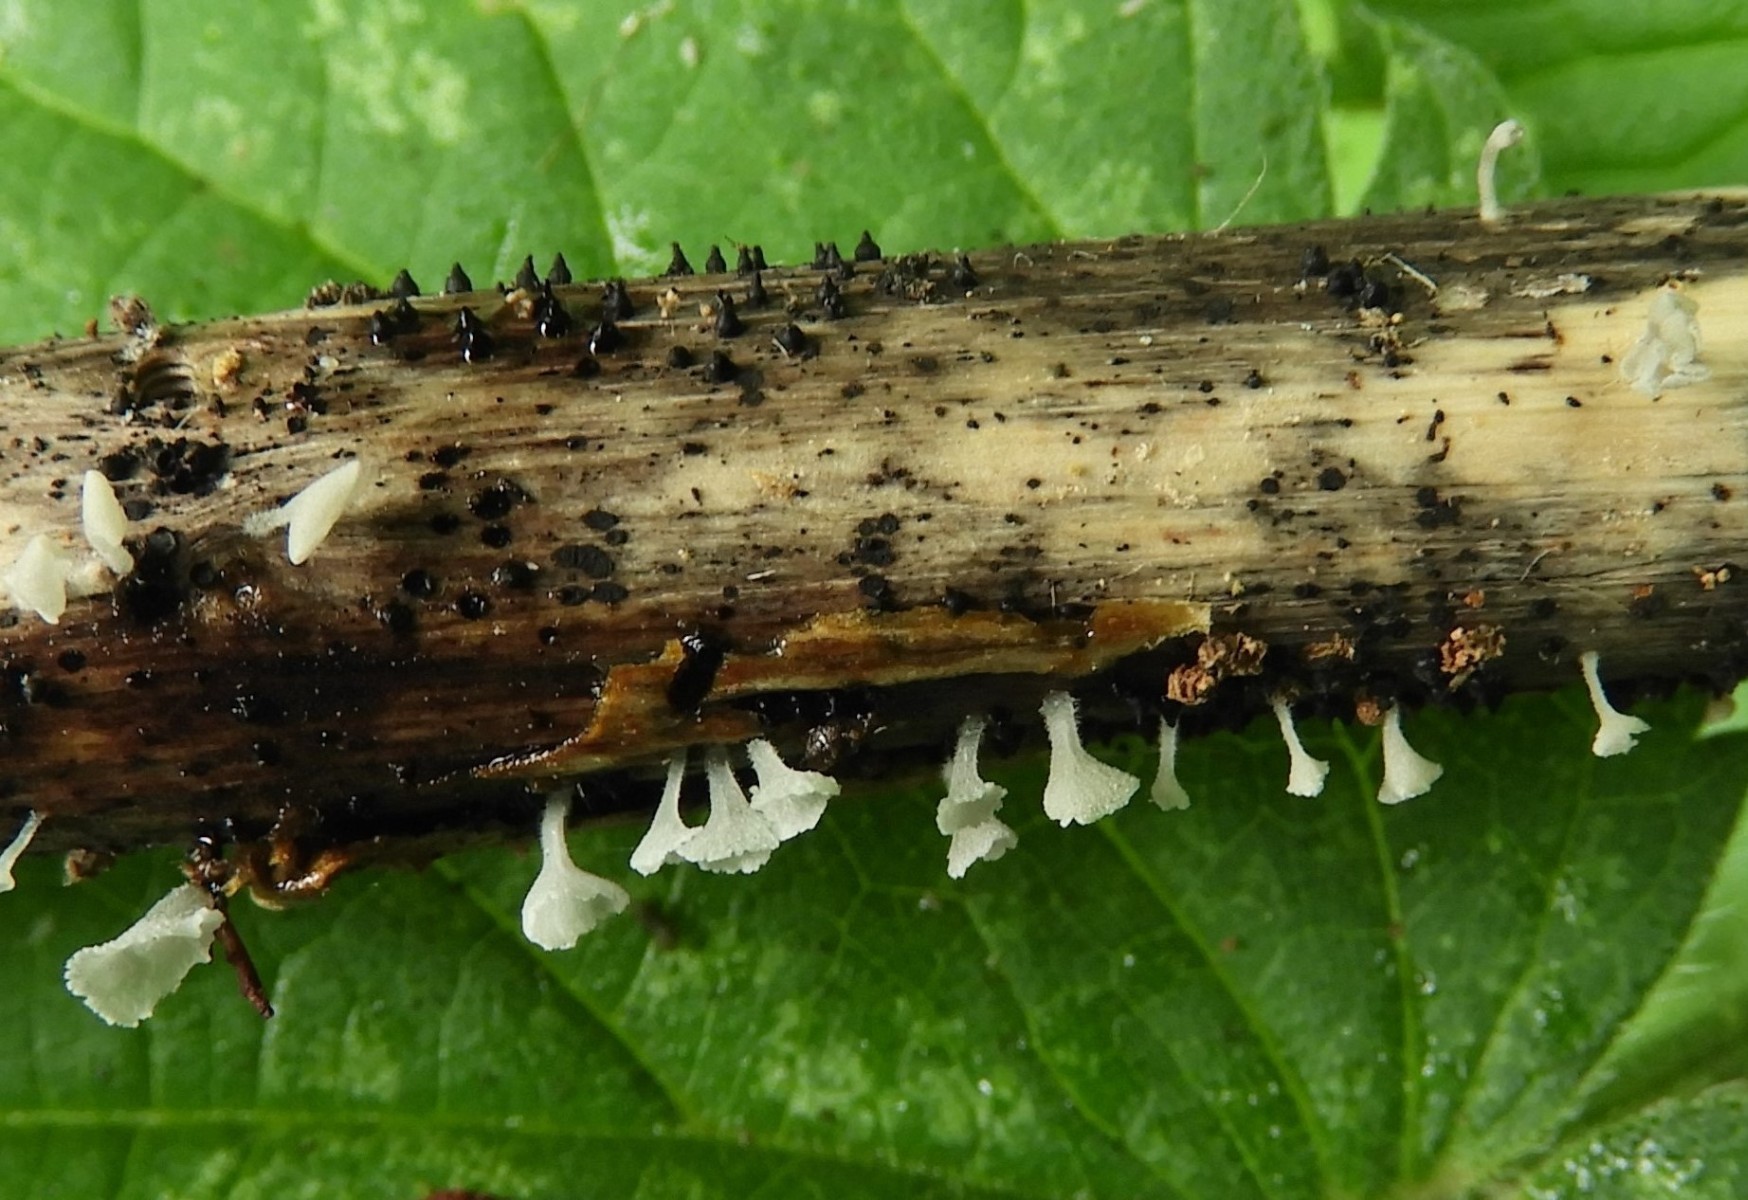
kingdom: Fungi
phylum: Ascomycota
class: Dothideomycetes
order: Pleosporales
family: Leptosphaeriaceae
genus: Leptosphaeria
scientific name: Leptosphaeria
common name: kulkegle
